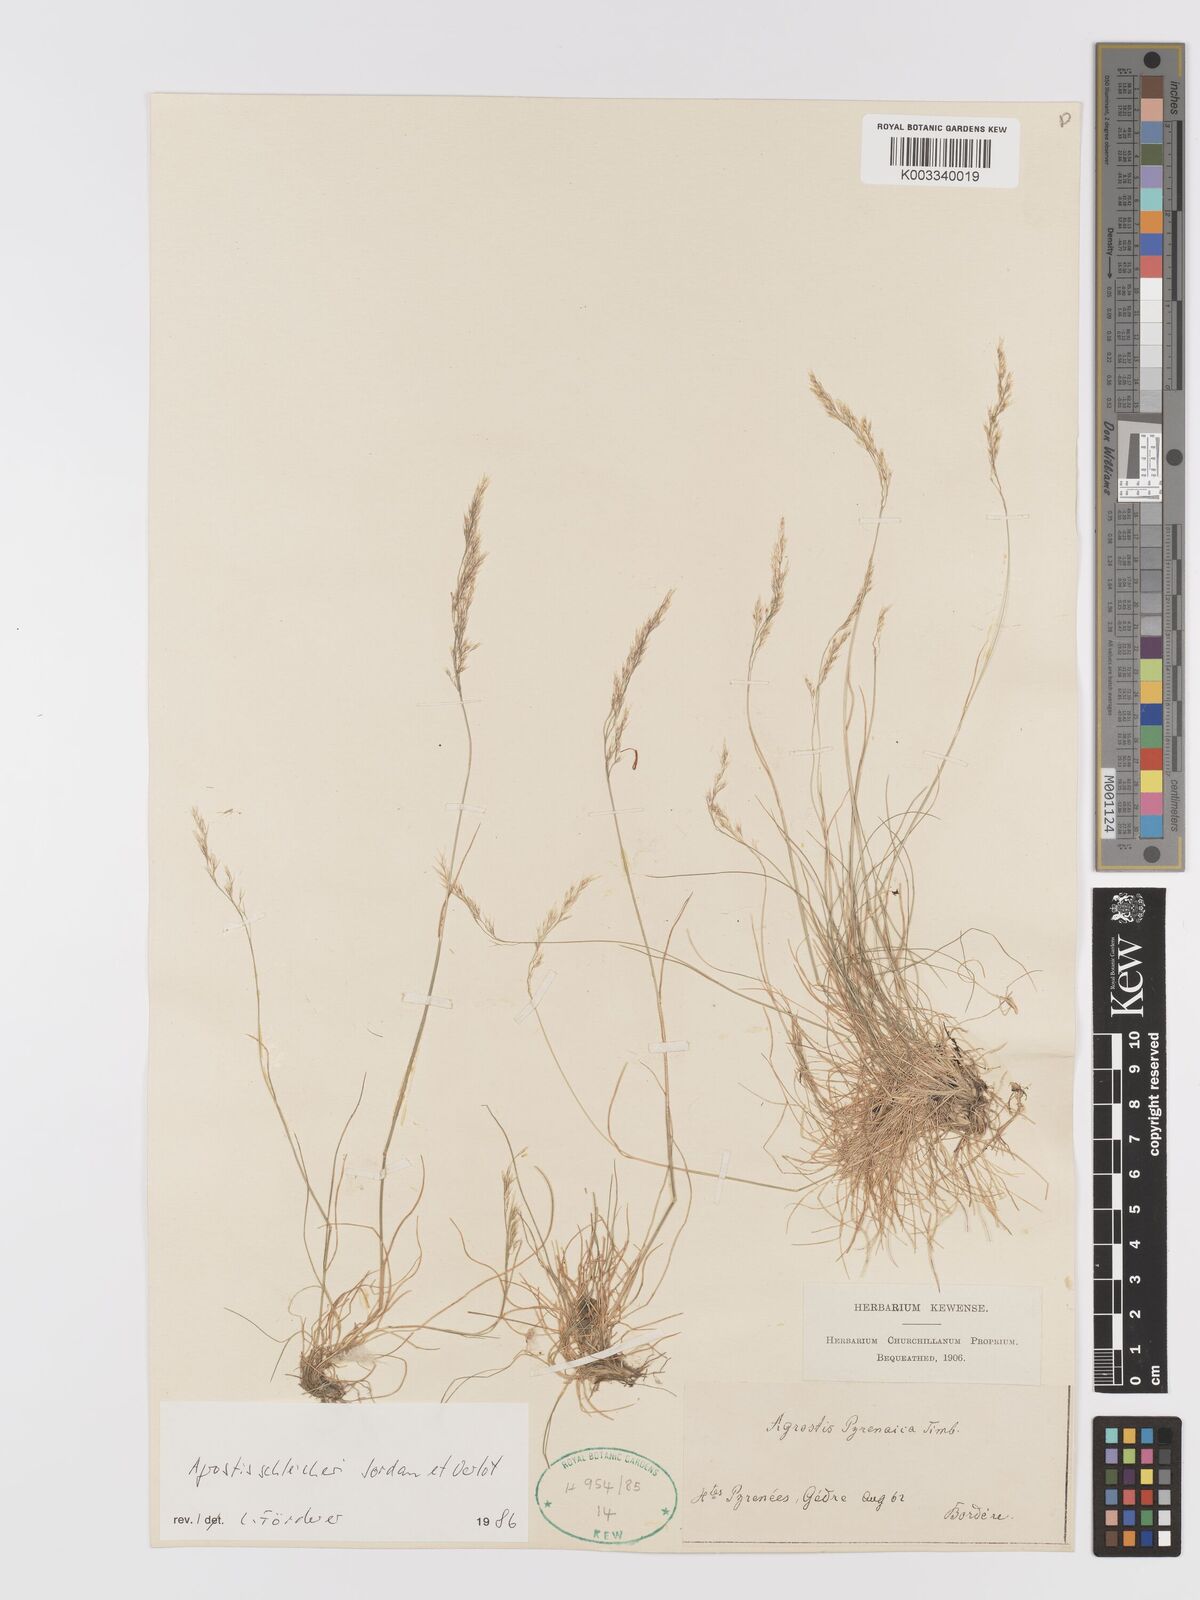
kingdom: Plantae
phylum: Tracheophyta
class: Liliopsida
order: Poales
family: Poaceae
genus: Alpagrostis
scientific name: Alpagrostis schleicheri
